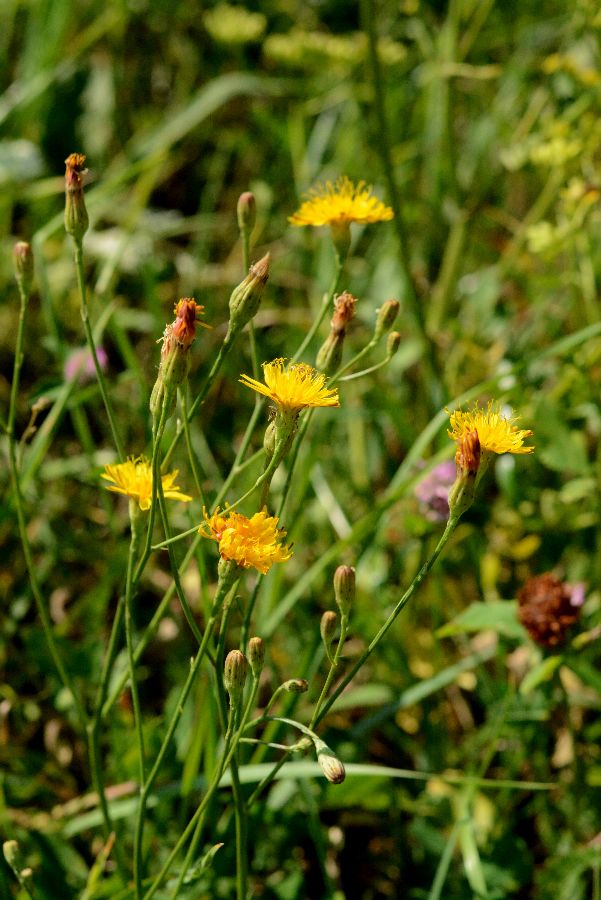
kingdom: Plantae
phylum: Tracheophyta
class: Magnoliopsida
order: Asterales
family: Asteraceae
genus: Scorzoneroides
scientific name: Scorzoneroides autumnalis
